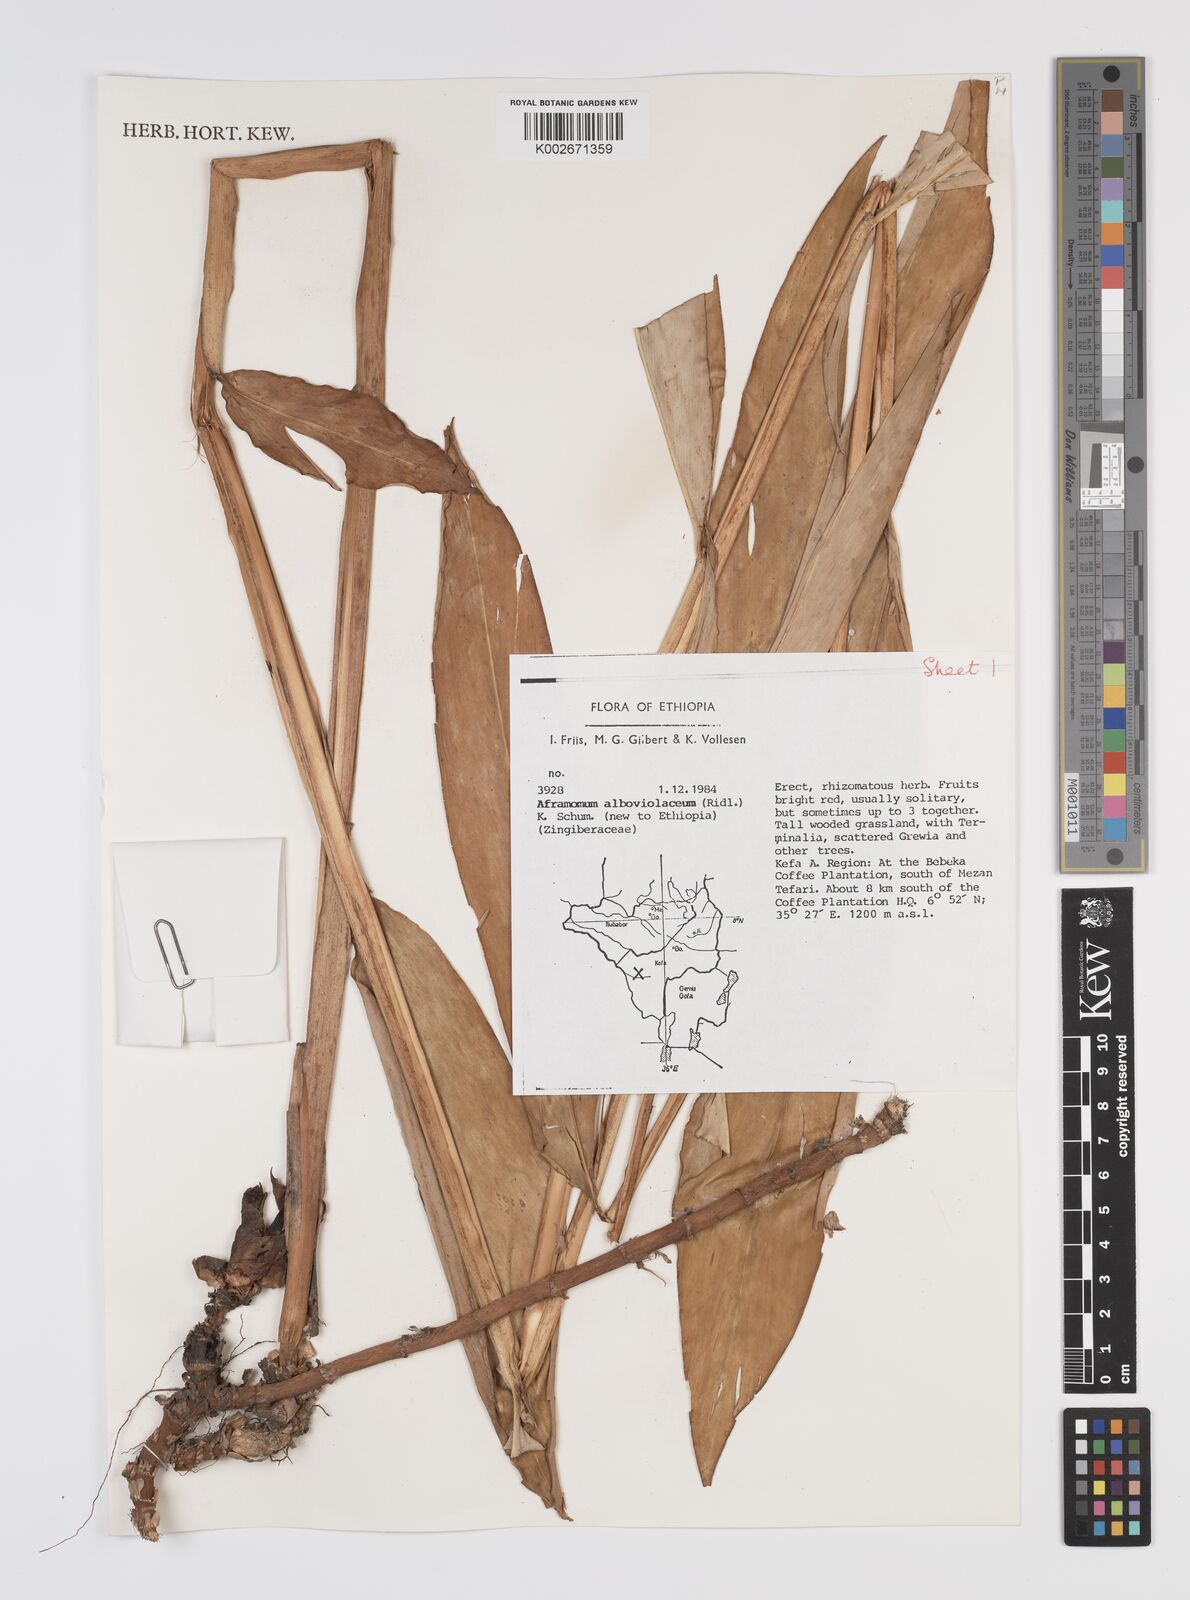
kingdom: Plantae
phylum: Tracheophyta
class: Liliopsida
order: Zingiberales
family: Zingiberaceae
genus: Aframomum
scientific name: Aframomum alboviolaceum
